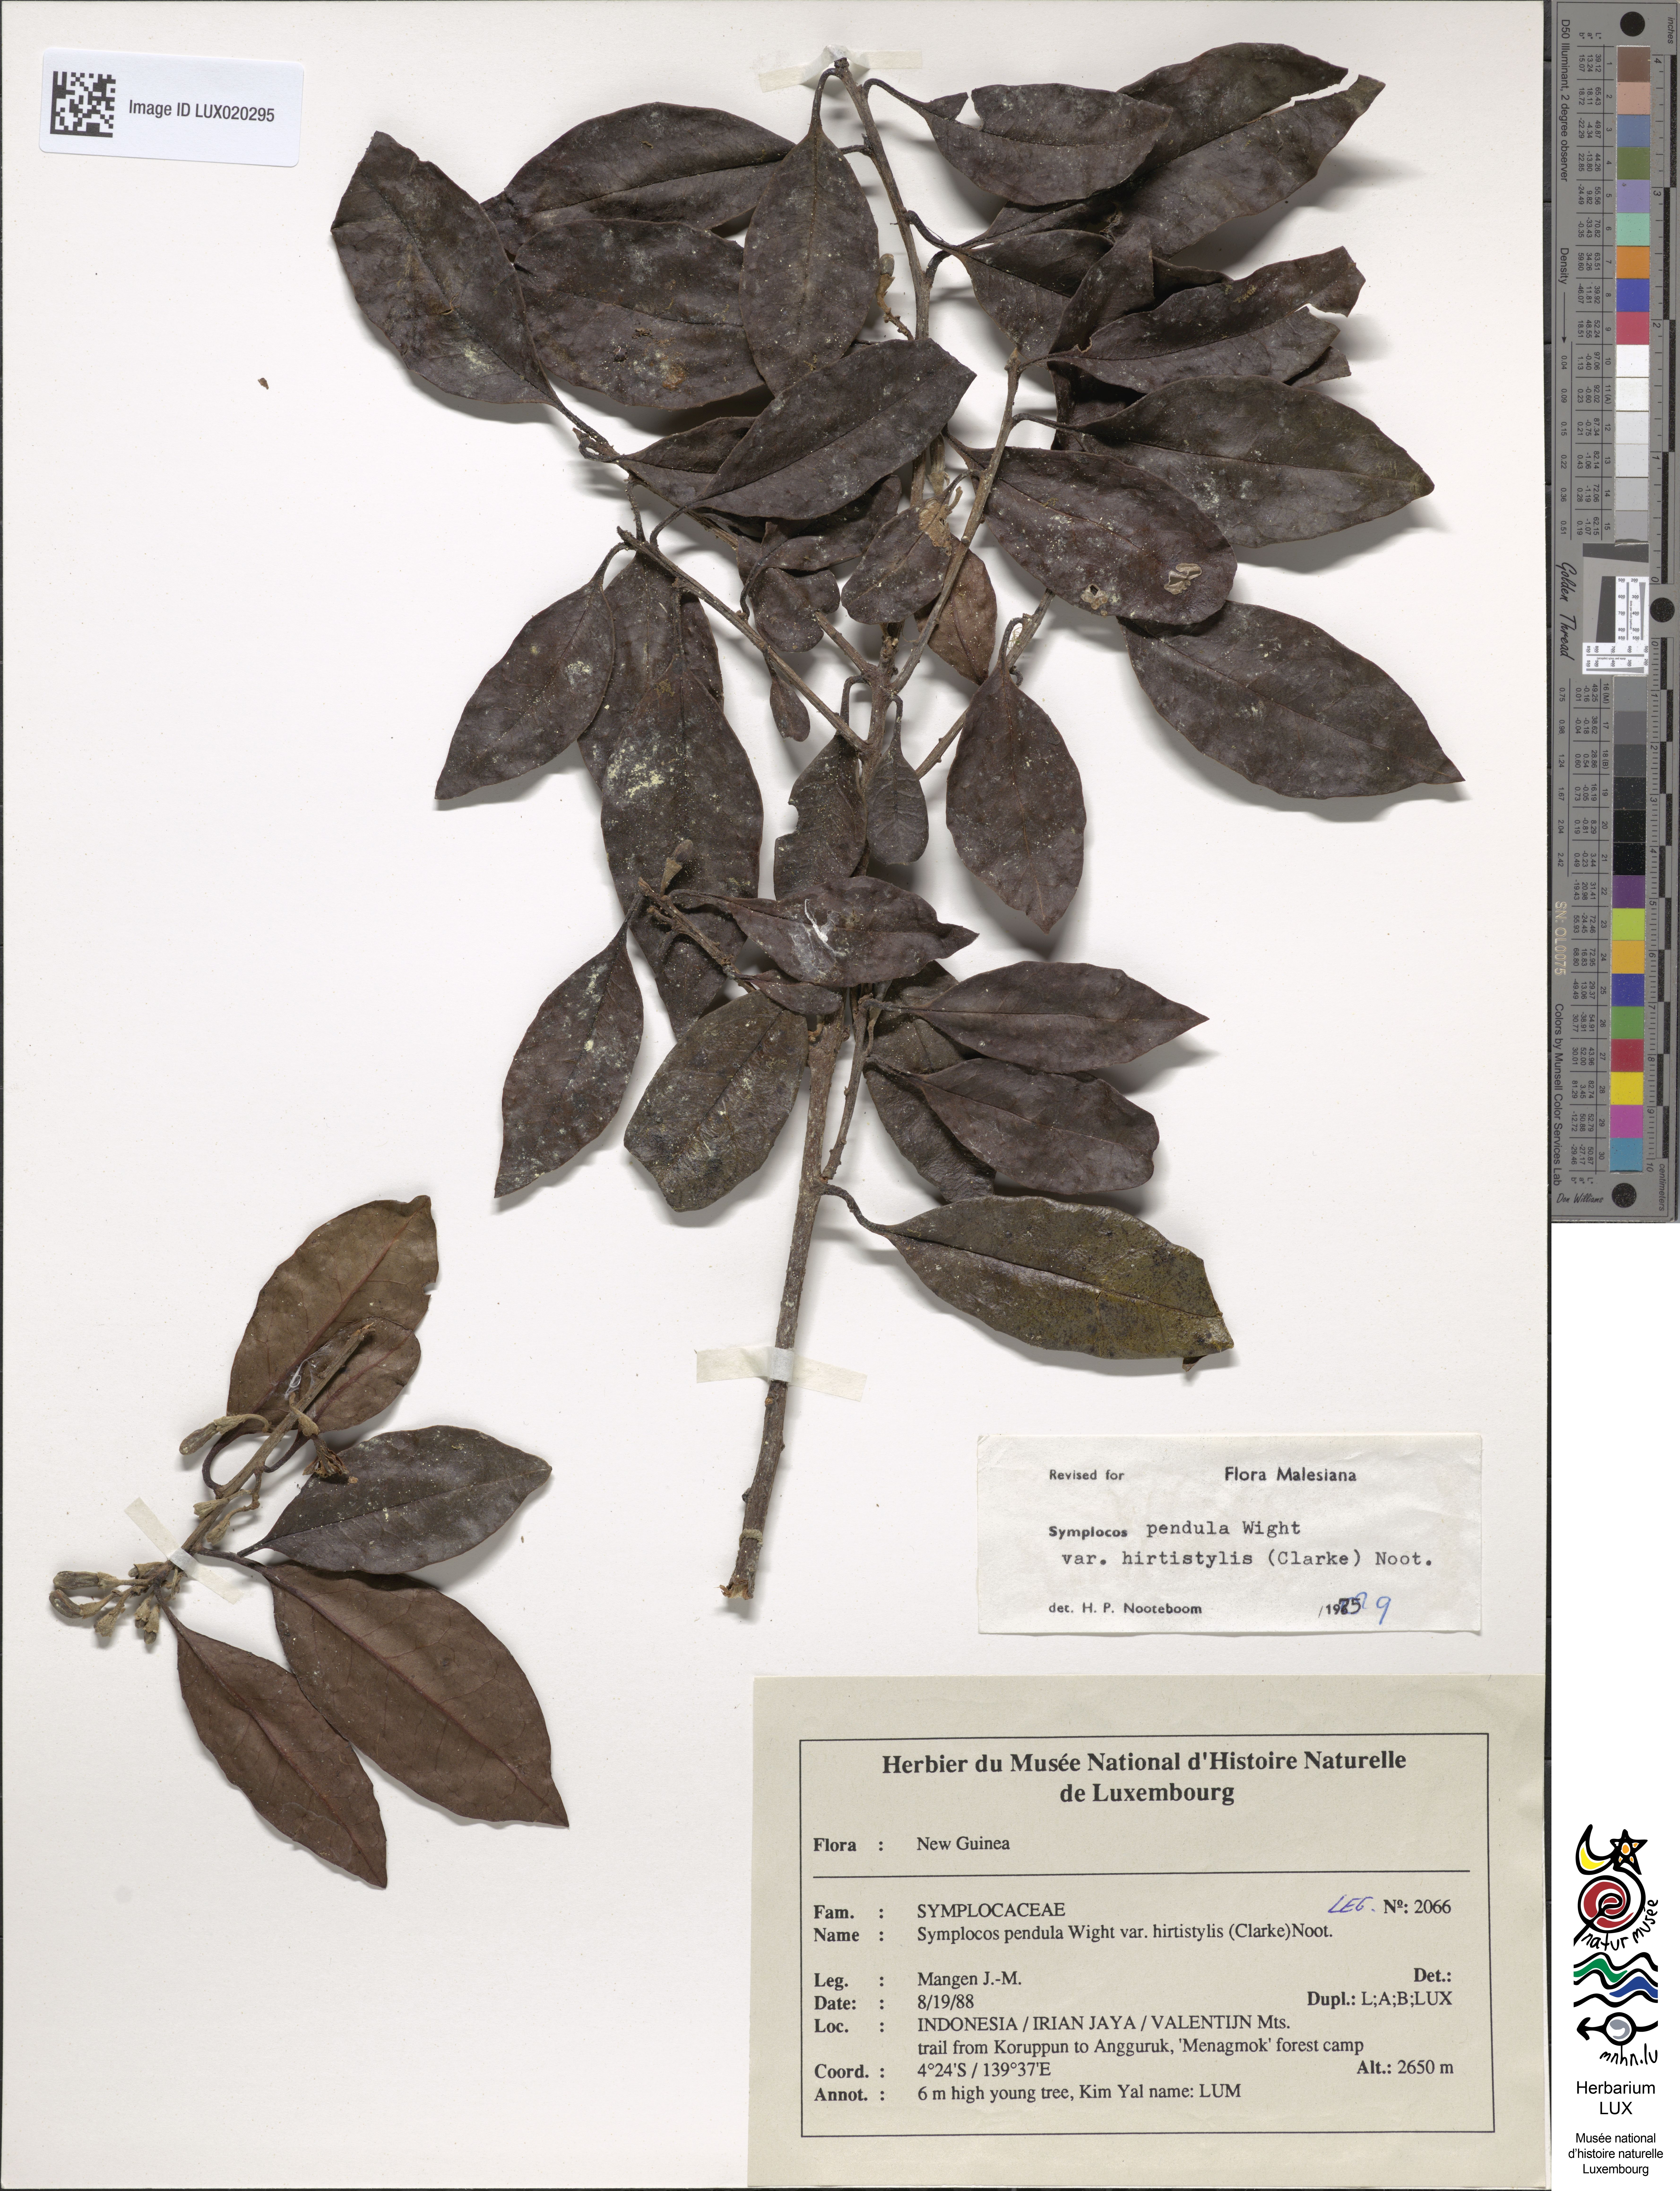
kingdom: Plantae
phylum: Tracheophyta
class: Magnoliopsida
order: Ericales
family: Symplocaceae
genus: Symplocos
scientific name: Symplocos pendula
